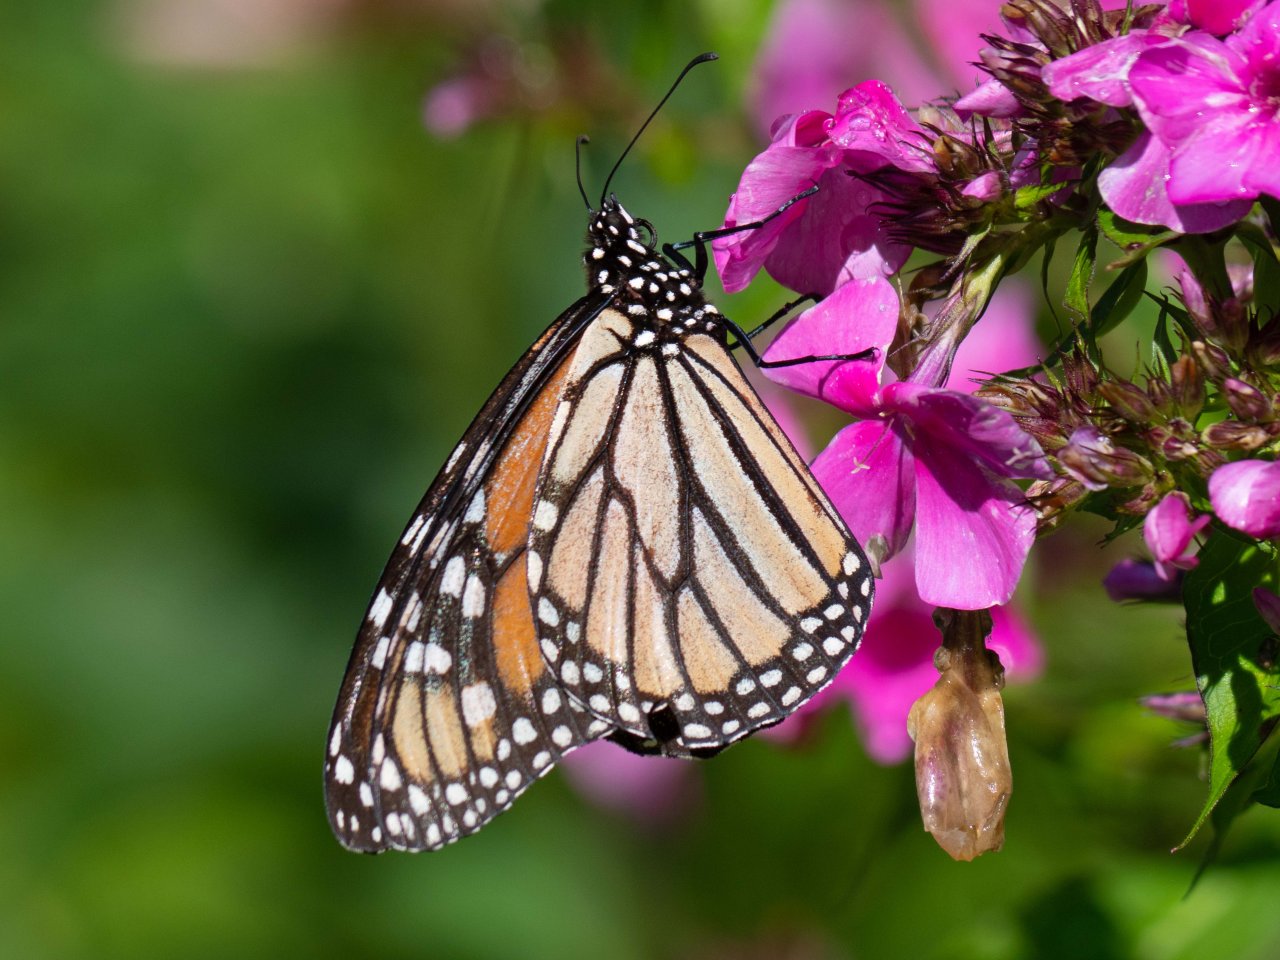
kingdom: Animalia
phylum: Arthropoda
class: Insecta
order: Lepidoptera
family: Nymphalidae
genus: Danaus
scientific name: Danaus plexippus
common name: Monarch
